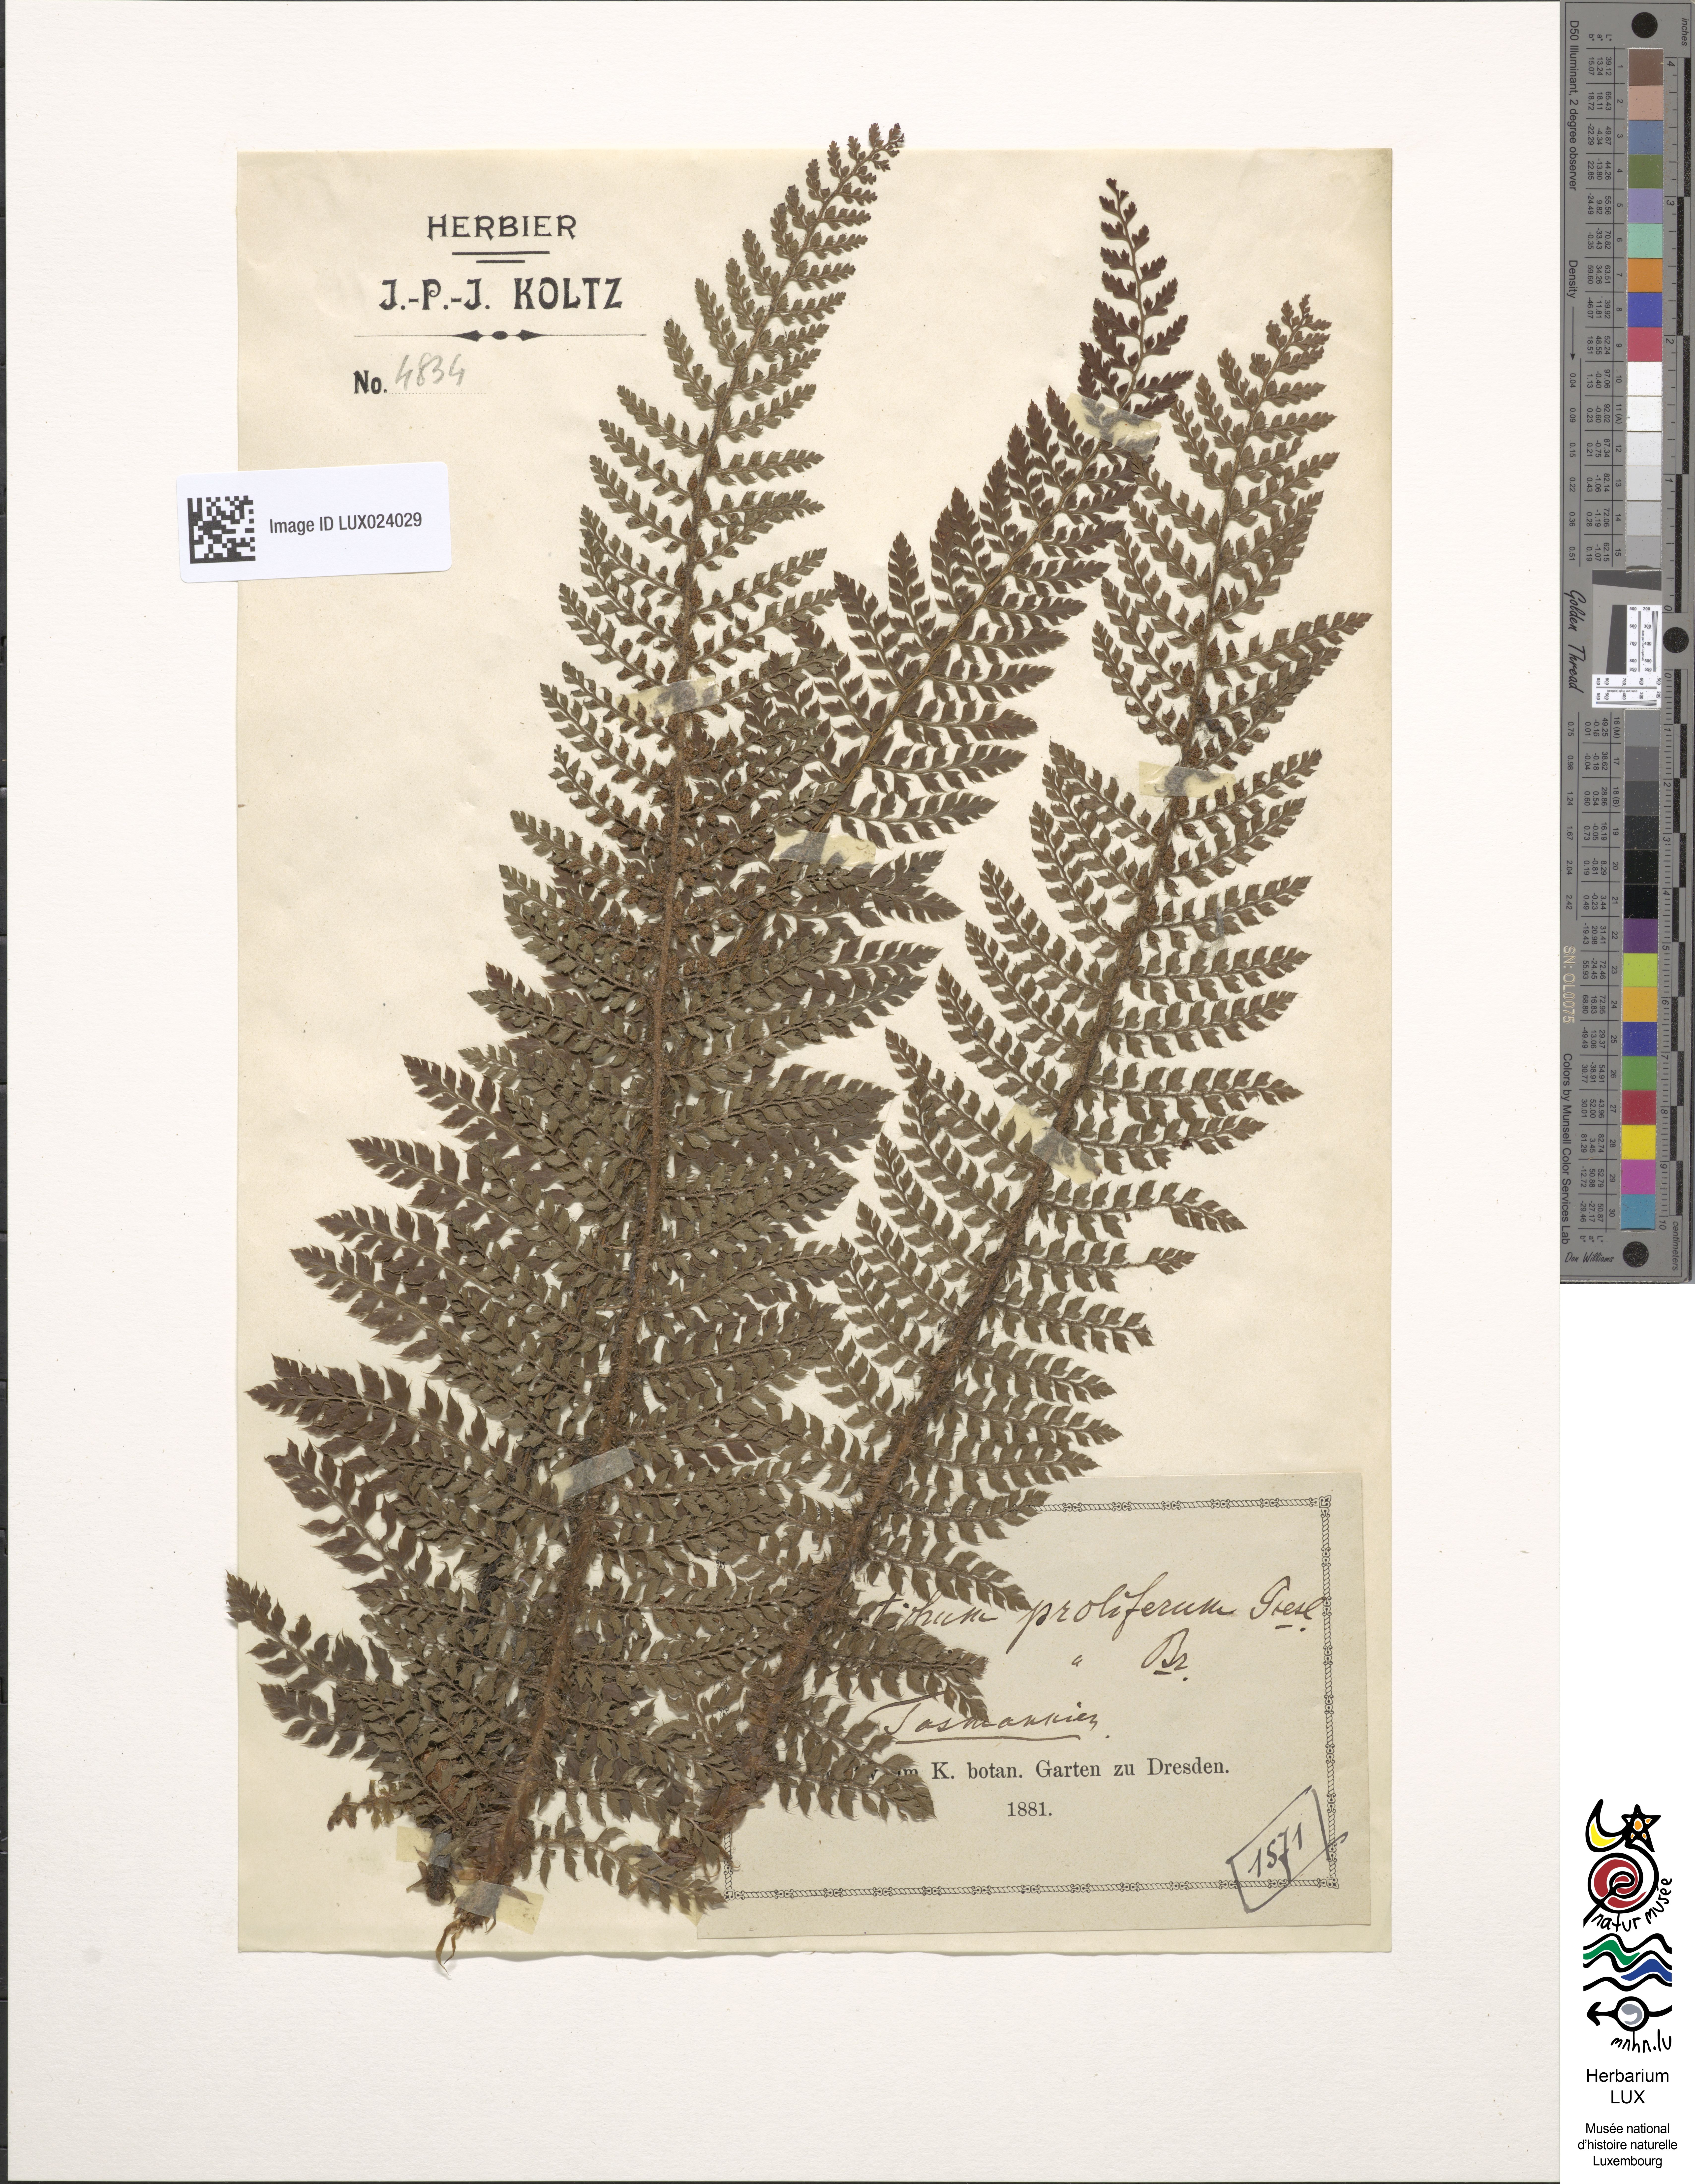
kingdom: Plantae
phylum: Tracheophyta
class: Polypodiopsida
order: Polypodiales
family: Dryopteridaceae
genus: Polystichum
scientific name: Polystichum proliferum
